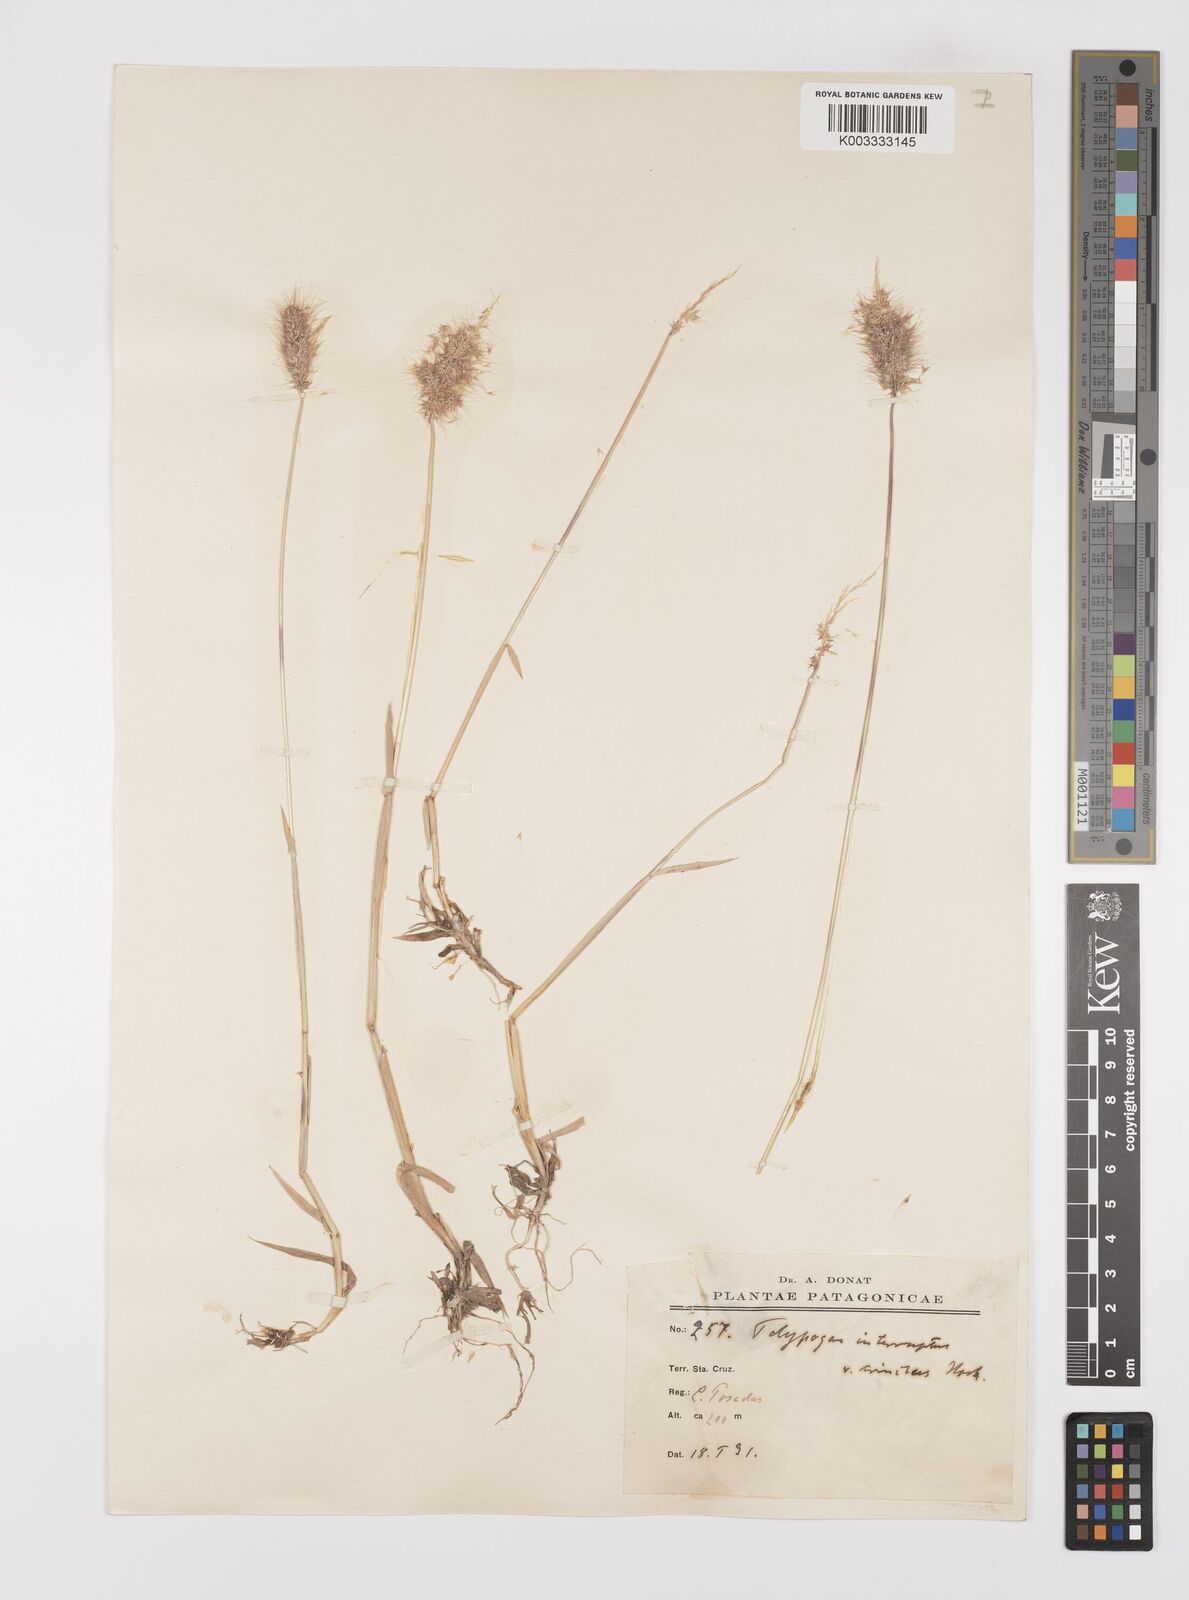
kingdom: Plantae
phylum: Tracheophyta
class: Liliopsida
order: Poales
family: Poaceae
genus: Polypogon
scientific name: Polypogon australis
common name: Chilean rabbitsfoot grass
